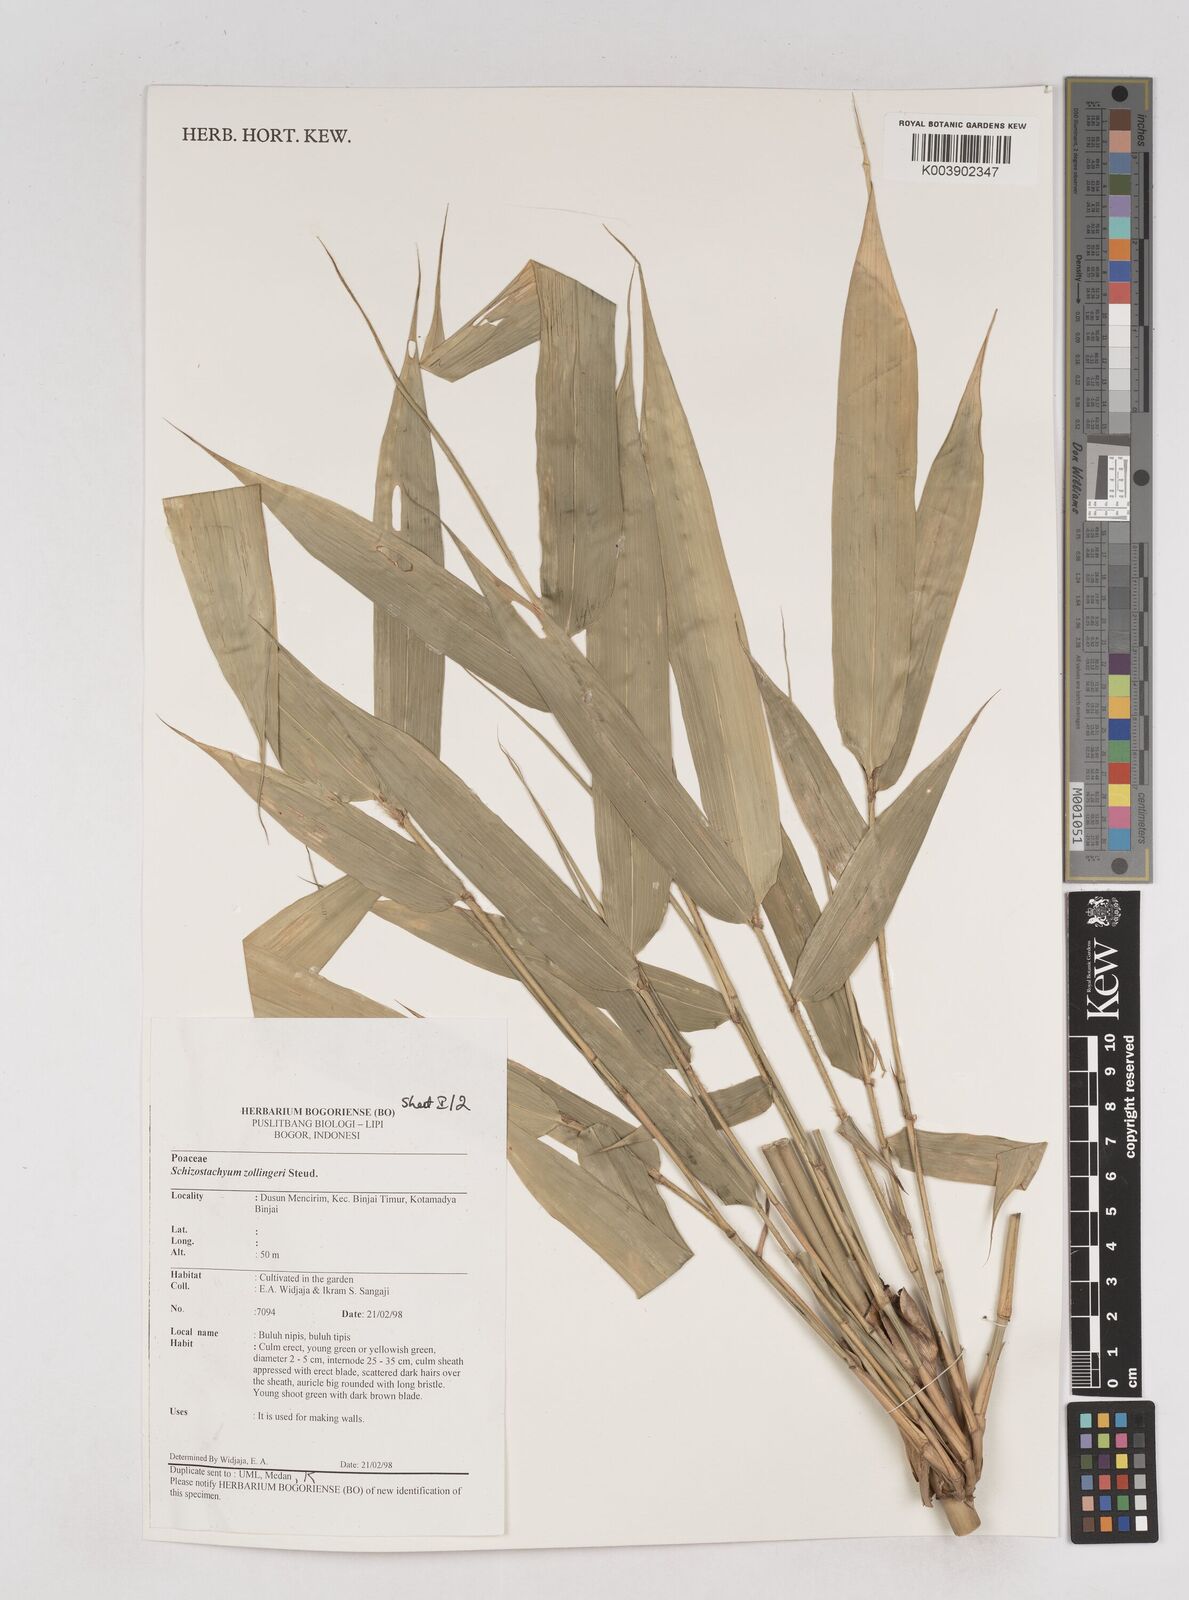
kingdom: Plantae
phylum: Tracheophyta
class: Liliopsida
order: Poales
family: Poaceae
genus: Schizostachyum
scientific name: Schizostachyum zollingeri
